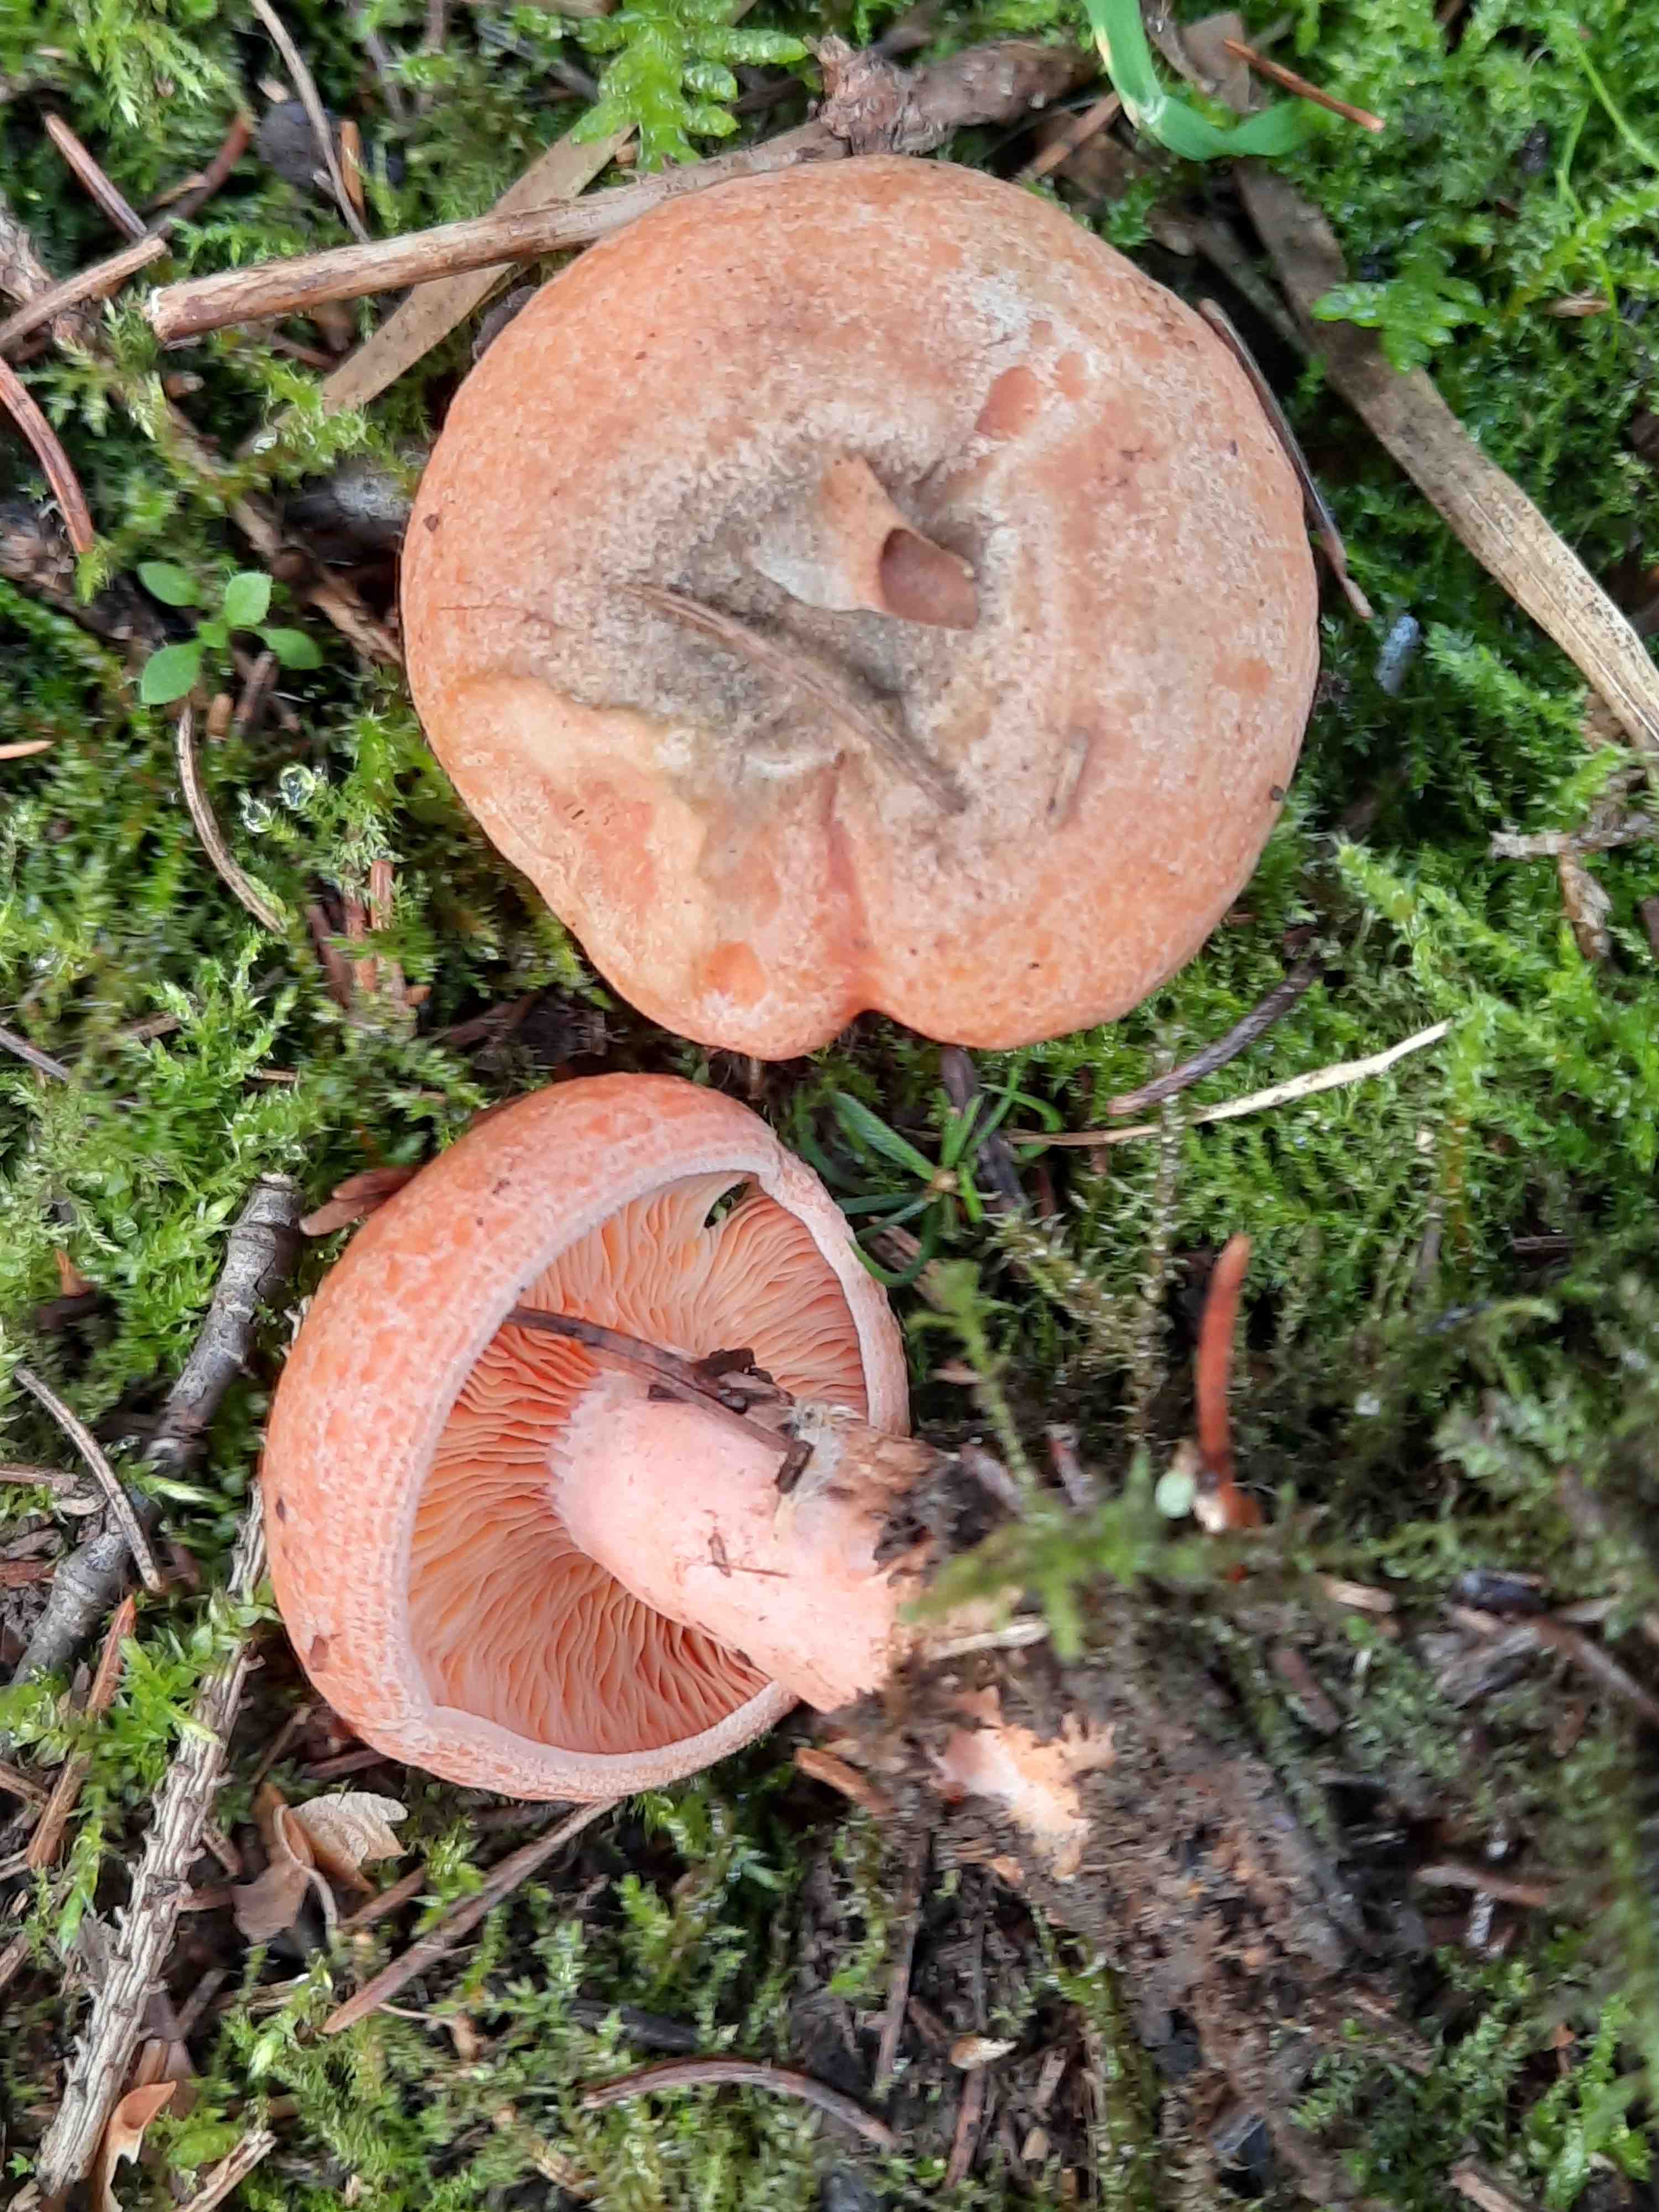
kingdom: Fungi
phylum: Basidiomycota
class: Agaricomycetes
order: Russulales
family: Russulaceae
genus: Lactarius
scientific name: Lactarius deterrimus
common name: gran-mælkehat
